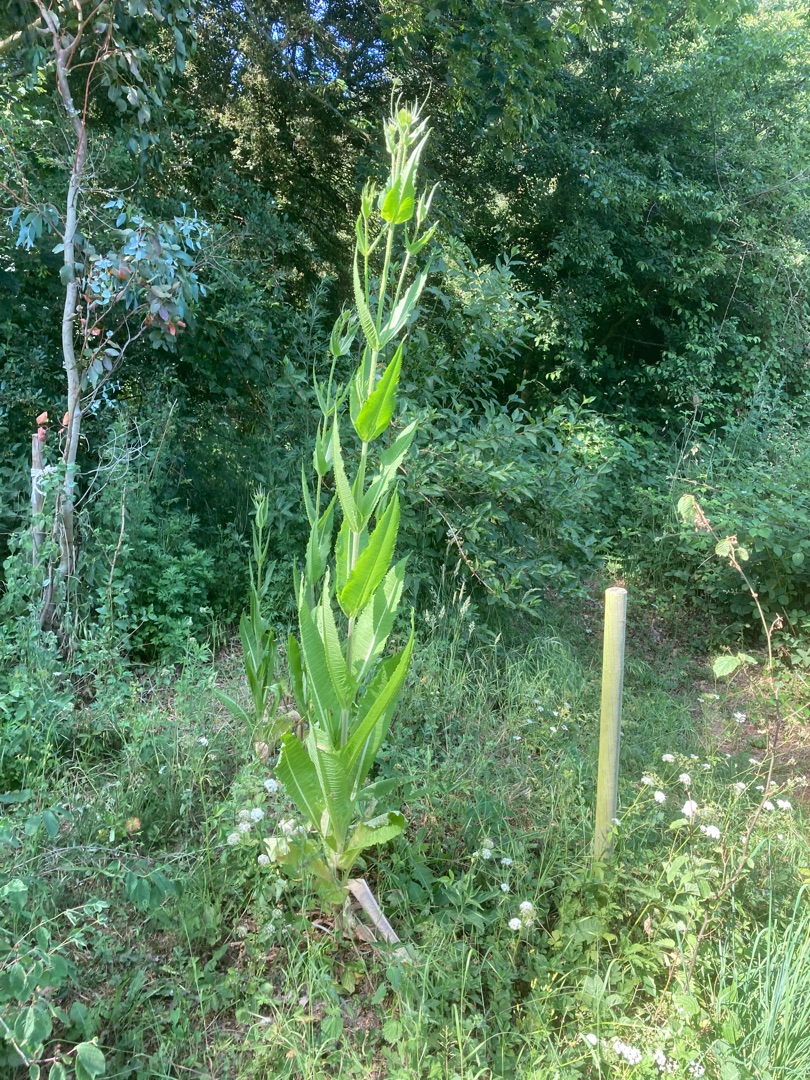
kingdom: Plantae
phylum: Tracheophyta
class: Magnoliopsida
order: Dipsacales
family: Caprifoliaceae
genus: Dipsacus
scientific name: Dipsacus fullonum
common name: Gærde-kartebolle
